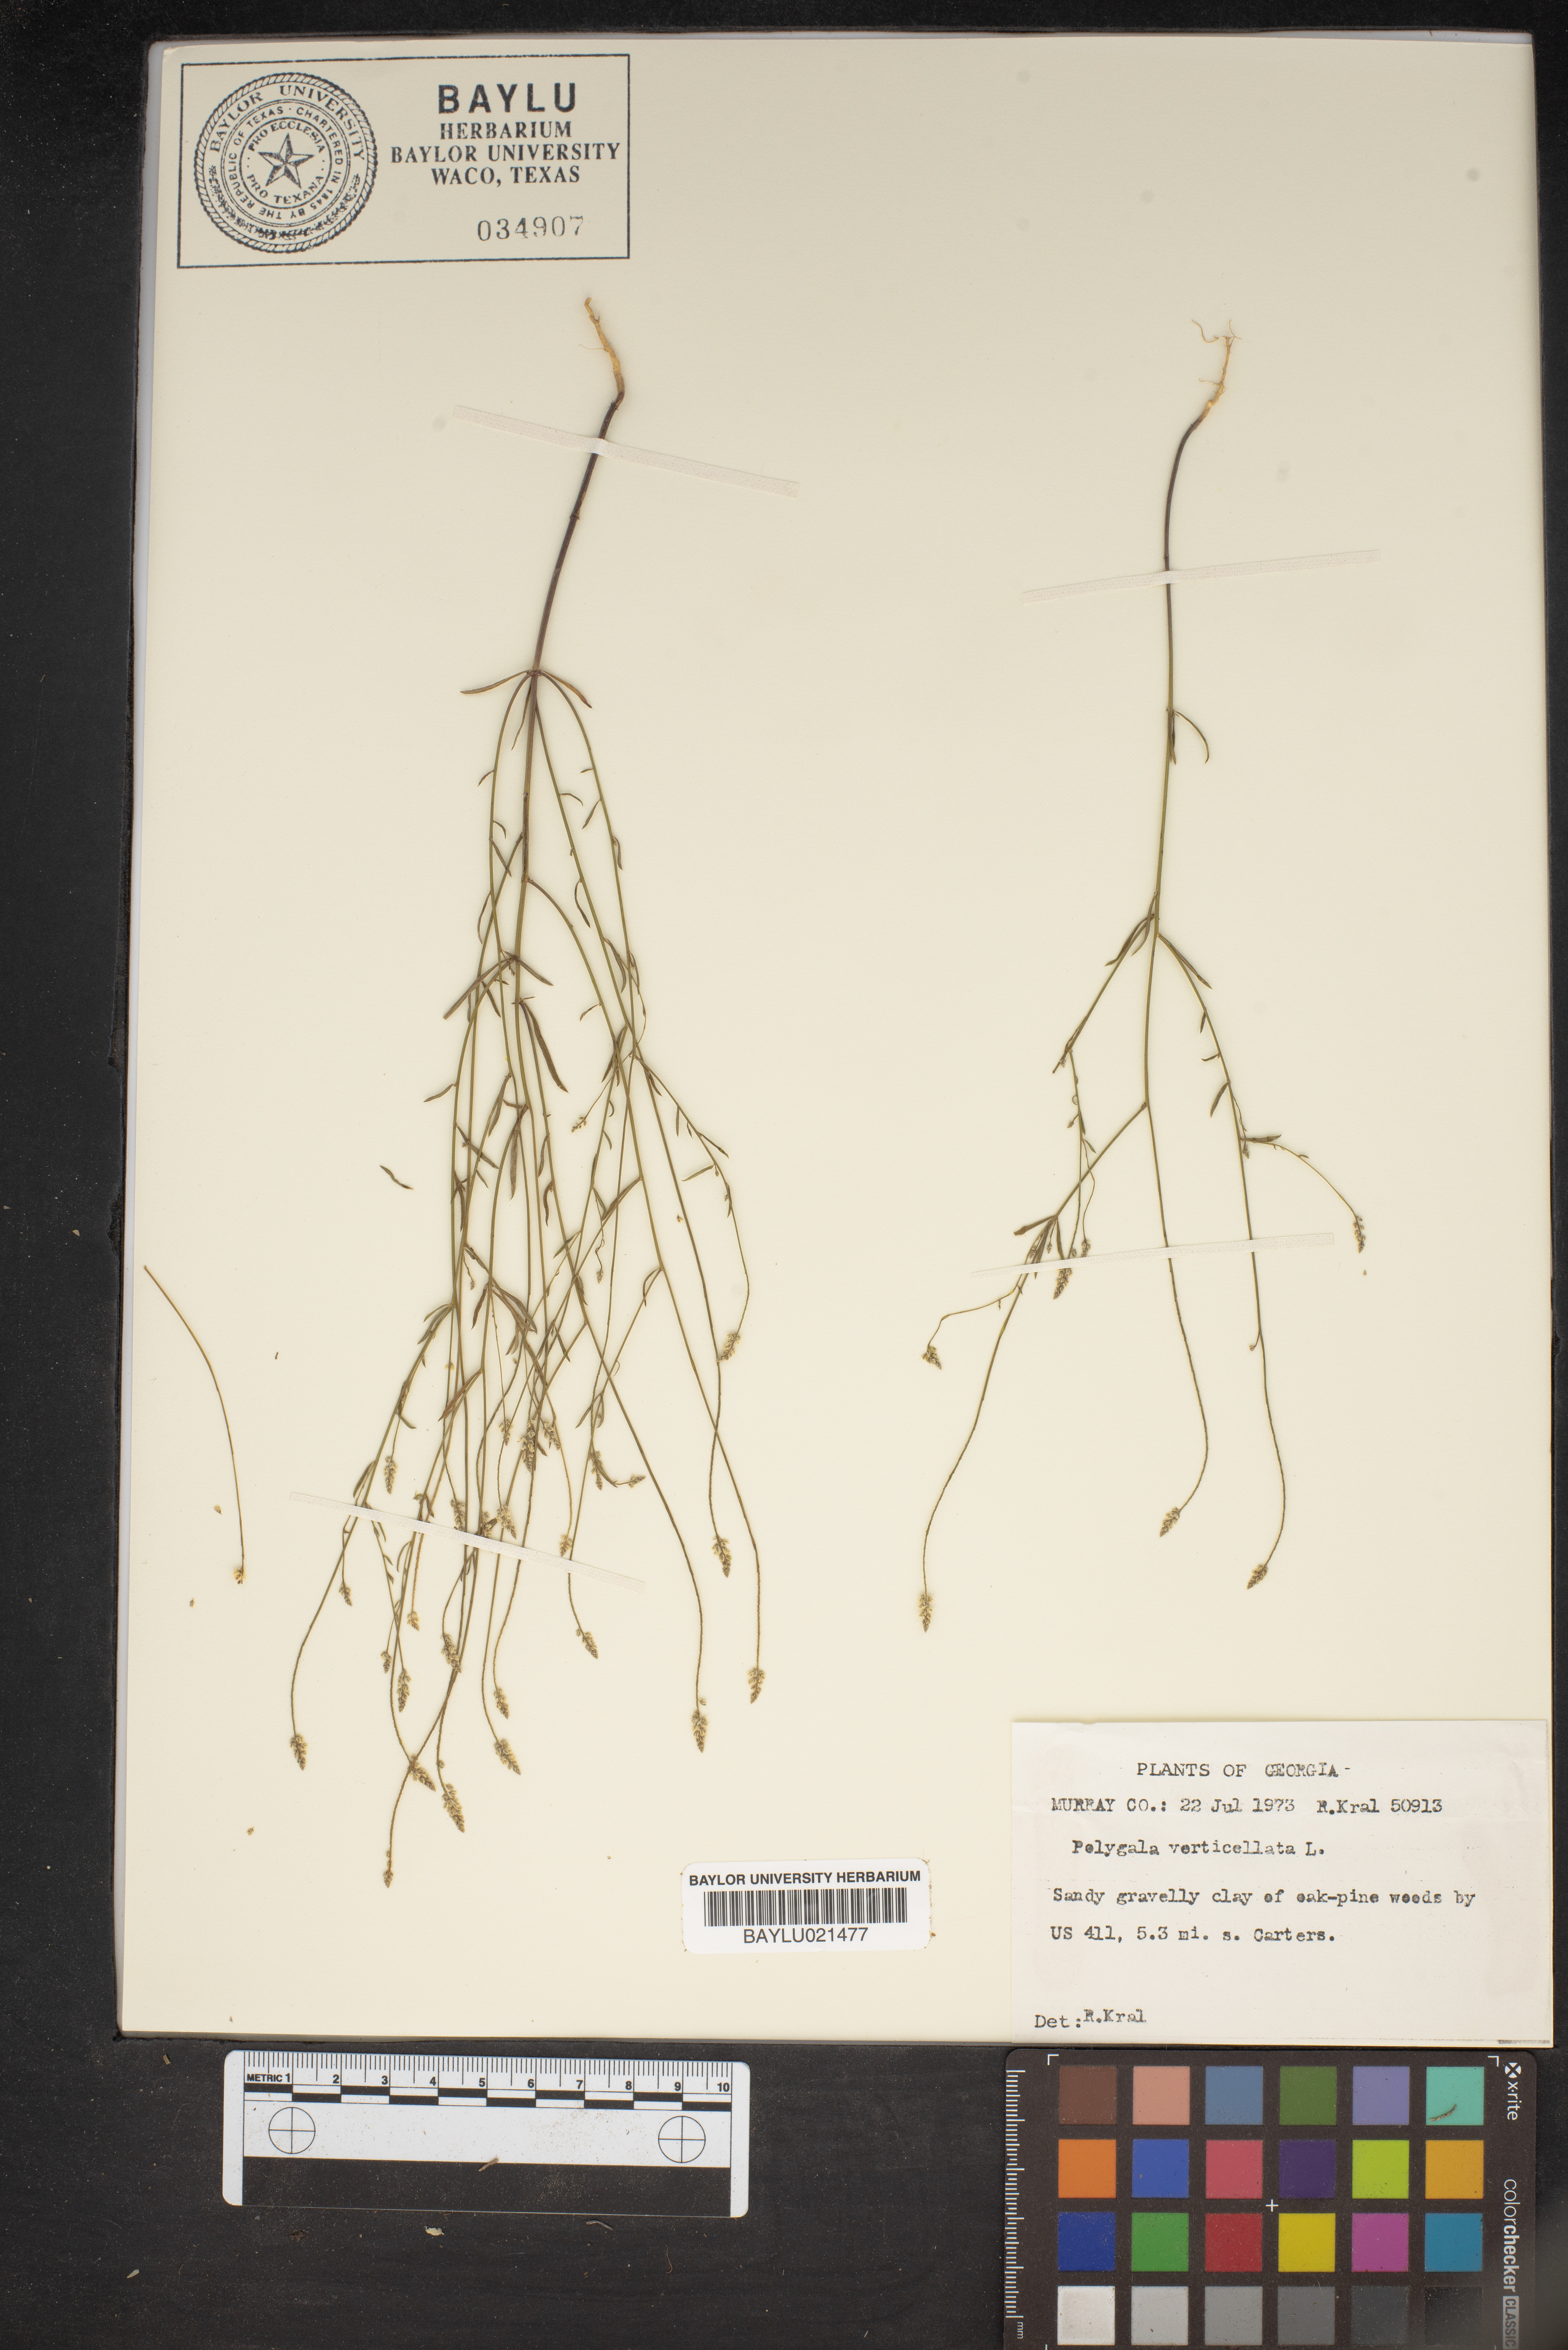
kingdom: Plantae
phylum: Tracheophyta
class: Magnoliopsida
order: Fabales
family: Polygalaceae
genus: Polygala
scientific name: Polygala verticillata
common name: Whorl milkwort
